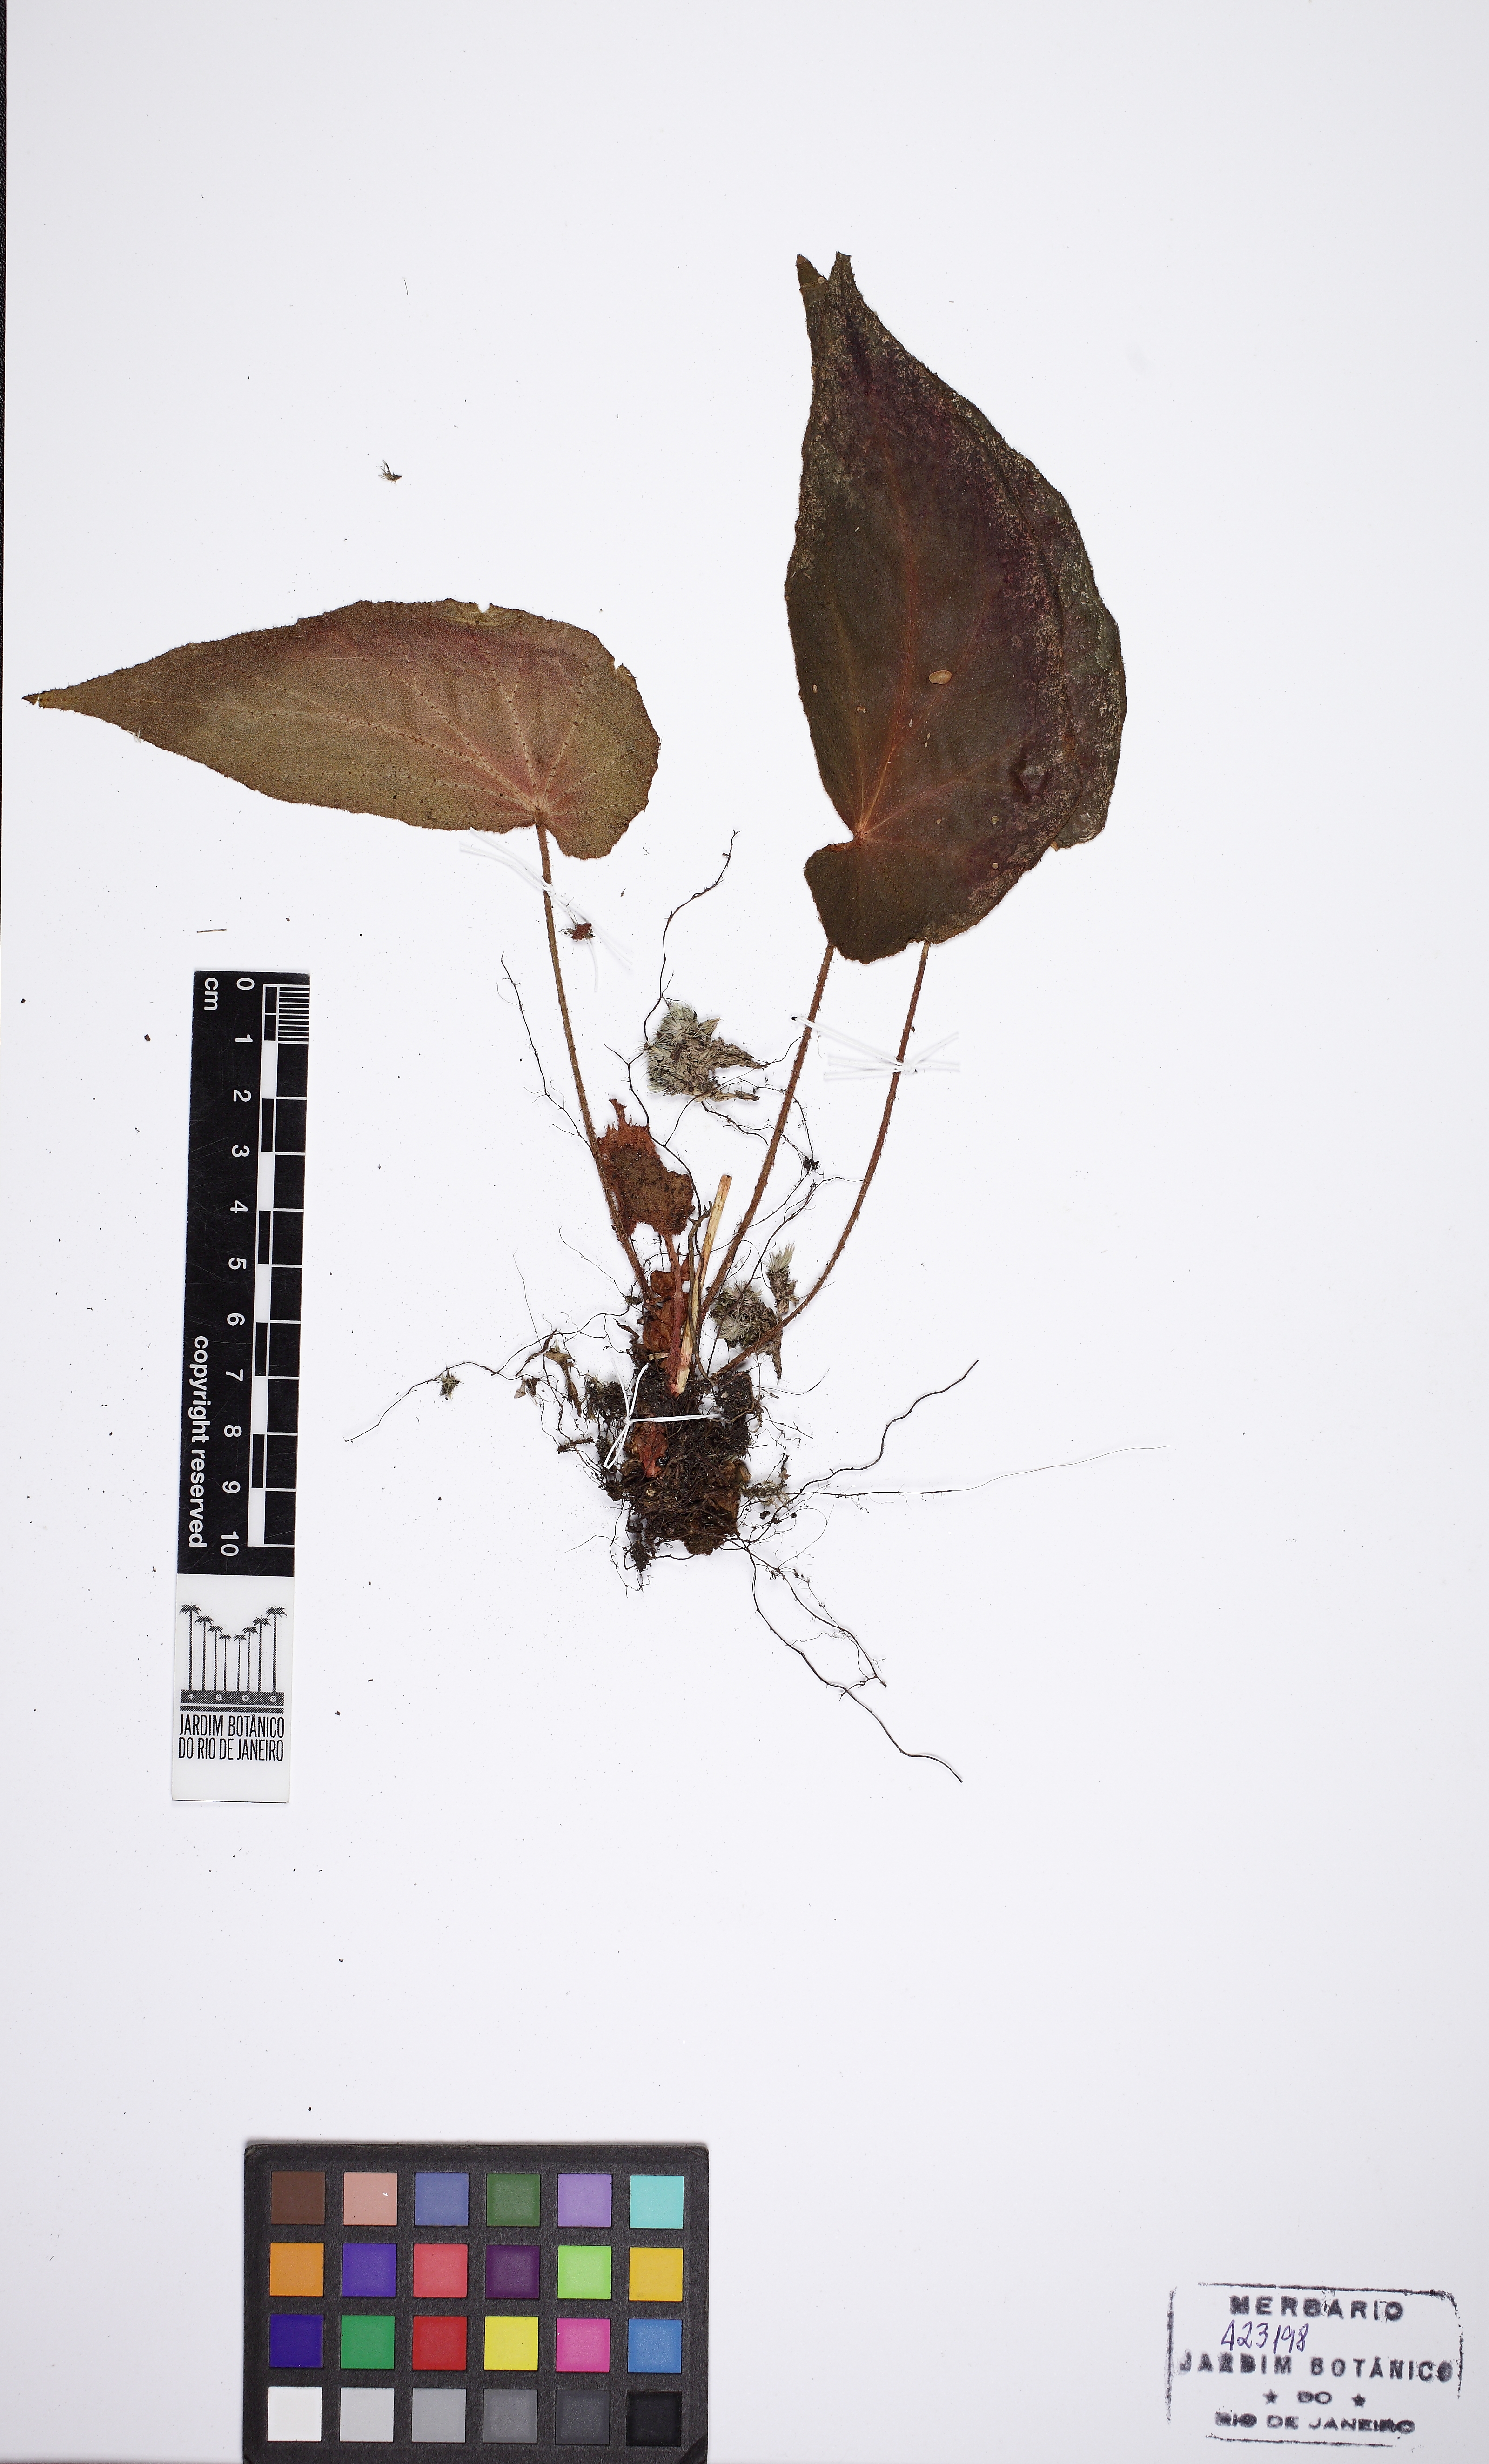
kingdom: Plantae
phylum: Tracheophyta
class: Magnoliopsida
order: Cucurbitales
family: Begoniaceae
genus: Begonia
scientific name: Begonia olsoniae
